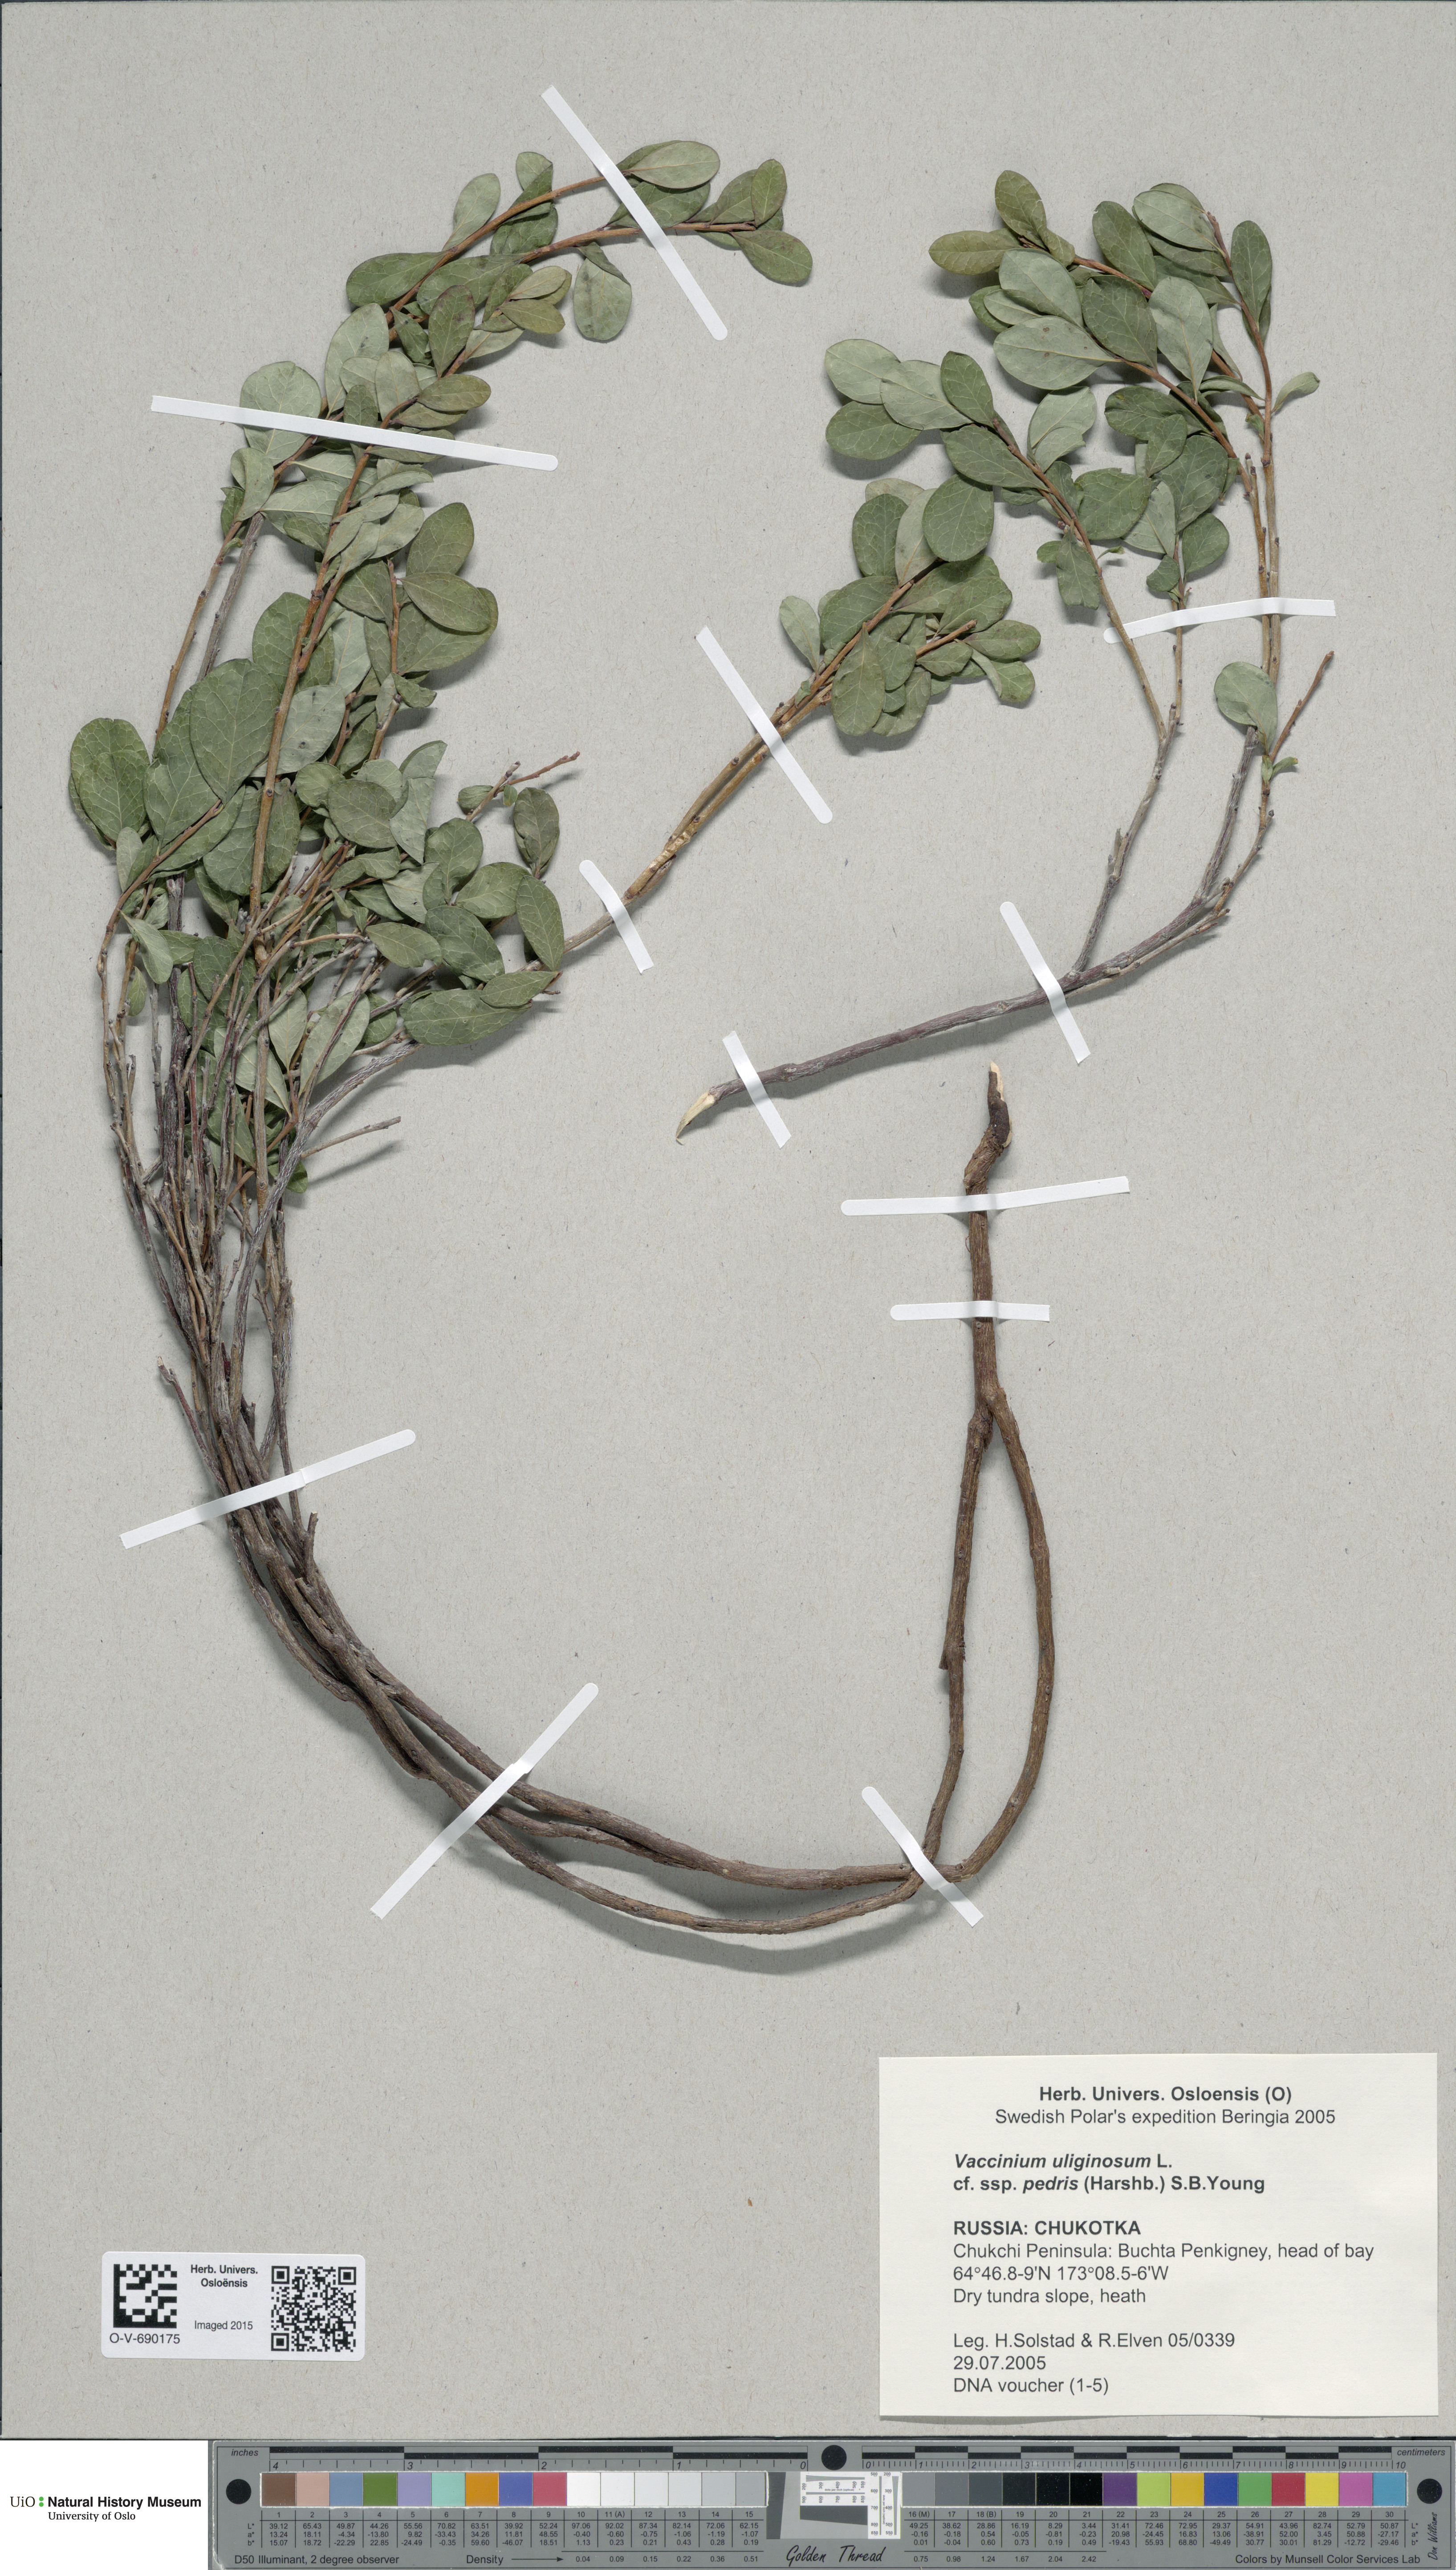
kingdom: Plantae
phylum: Tracheophyta
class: Magnoliopsida
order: Ericales
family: Ericaceae
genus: Vaccinium
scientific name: Vaccinium uliginosum
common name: Bog bilberry
